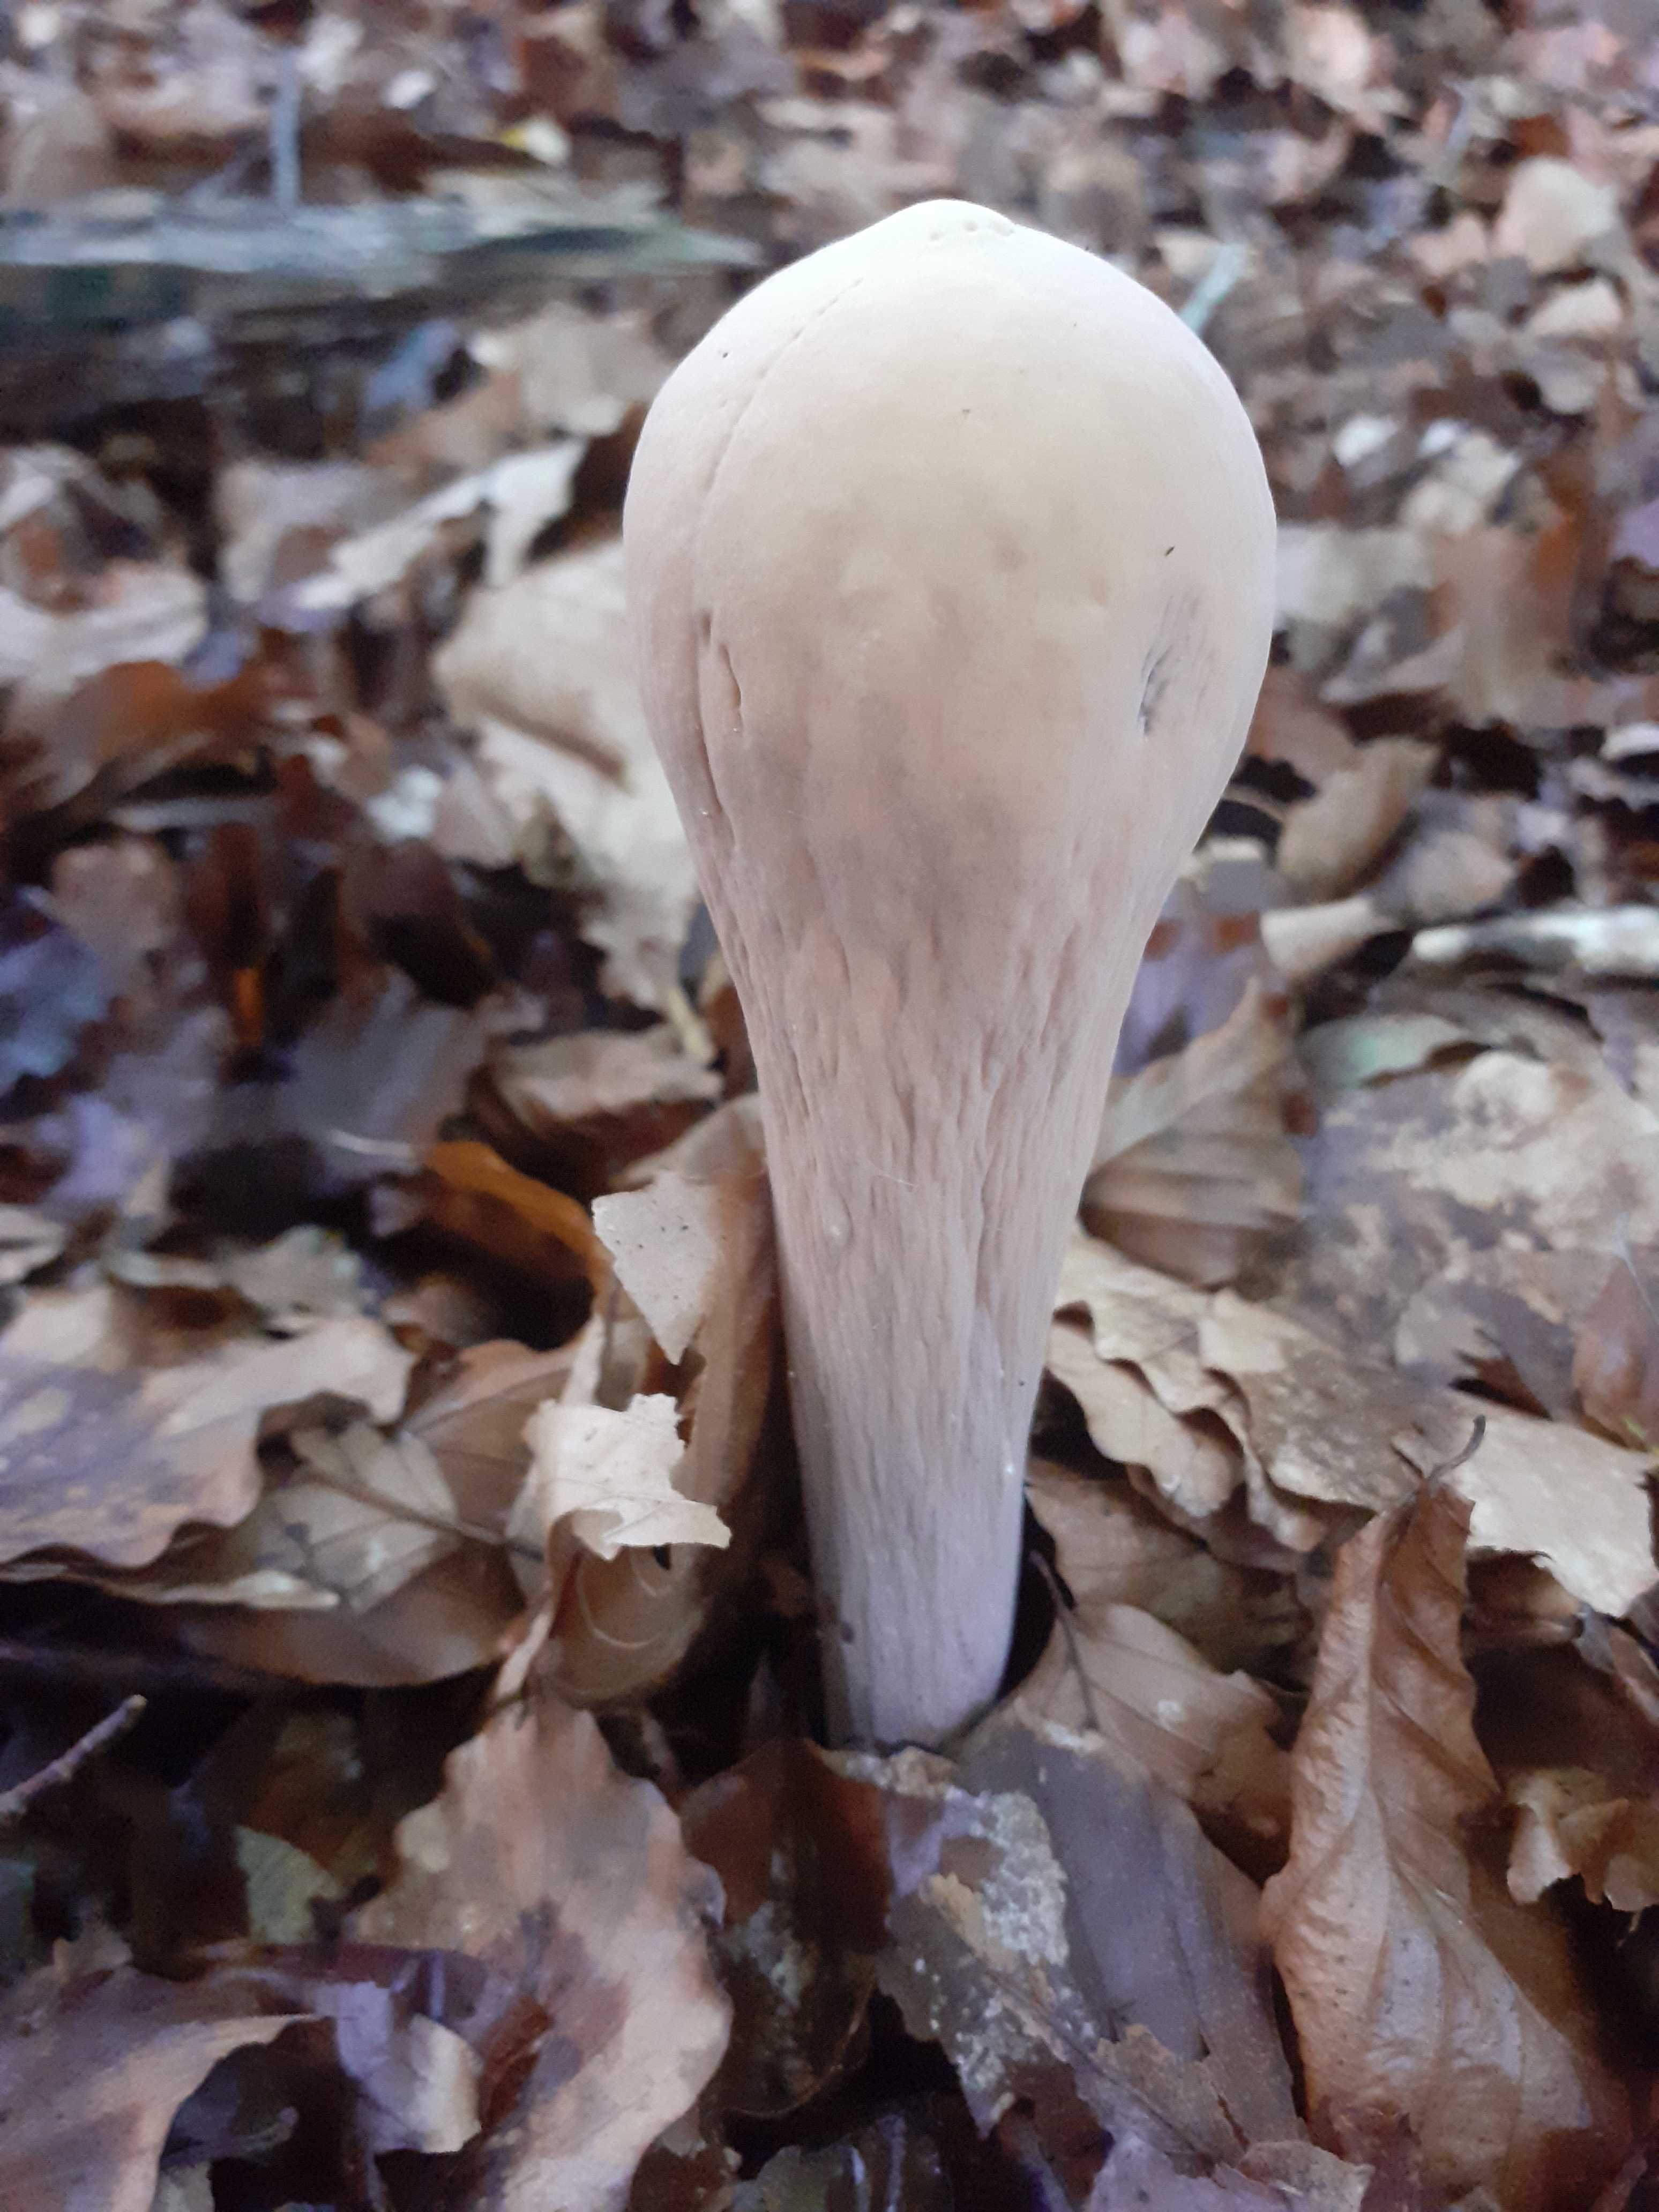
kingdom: Fungi
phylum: Basidiomycota
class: Agaricomycetes
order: Gomphales
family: Clavariadelphaceae
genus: Clavariadelphus
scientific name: Clavariadelphus pistillaris
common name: herkules-kæmpekølle
